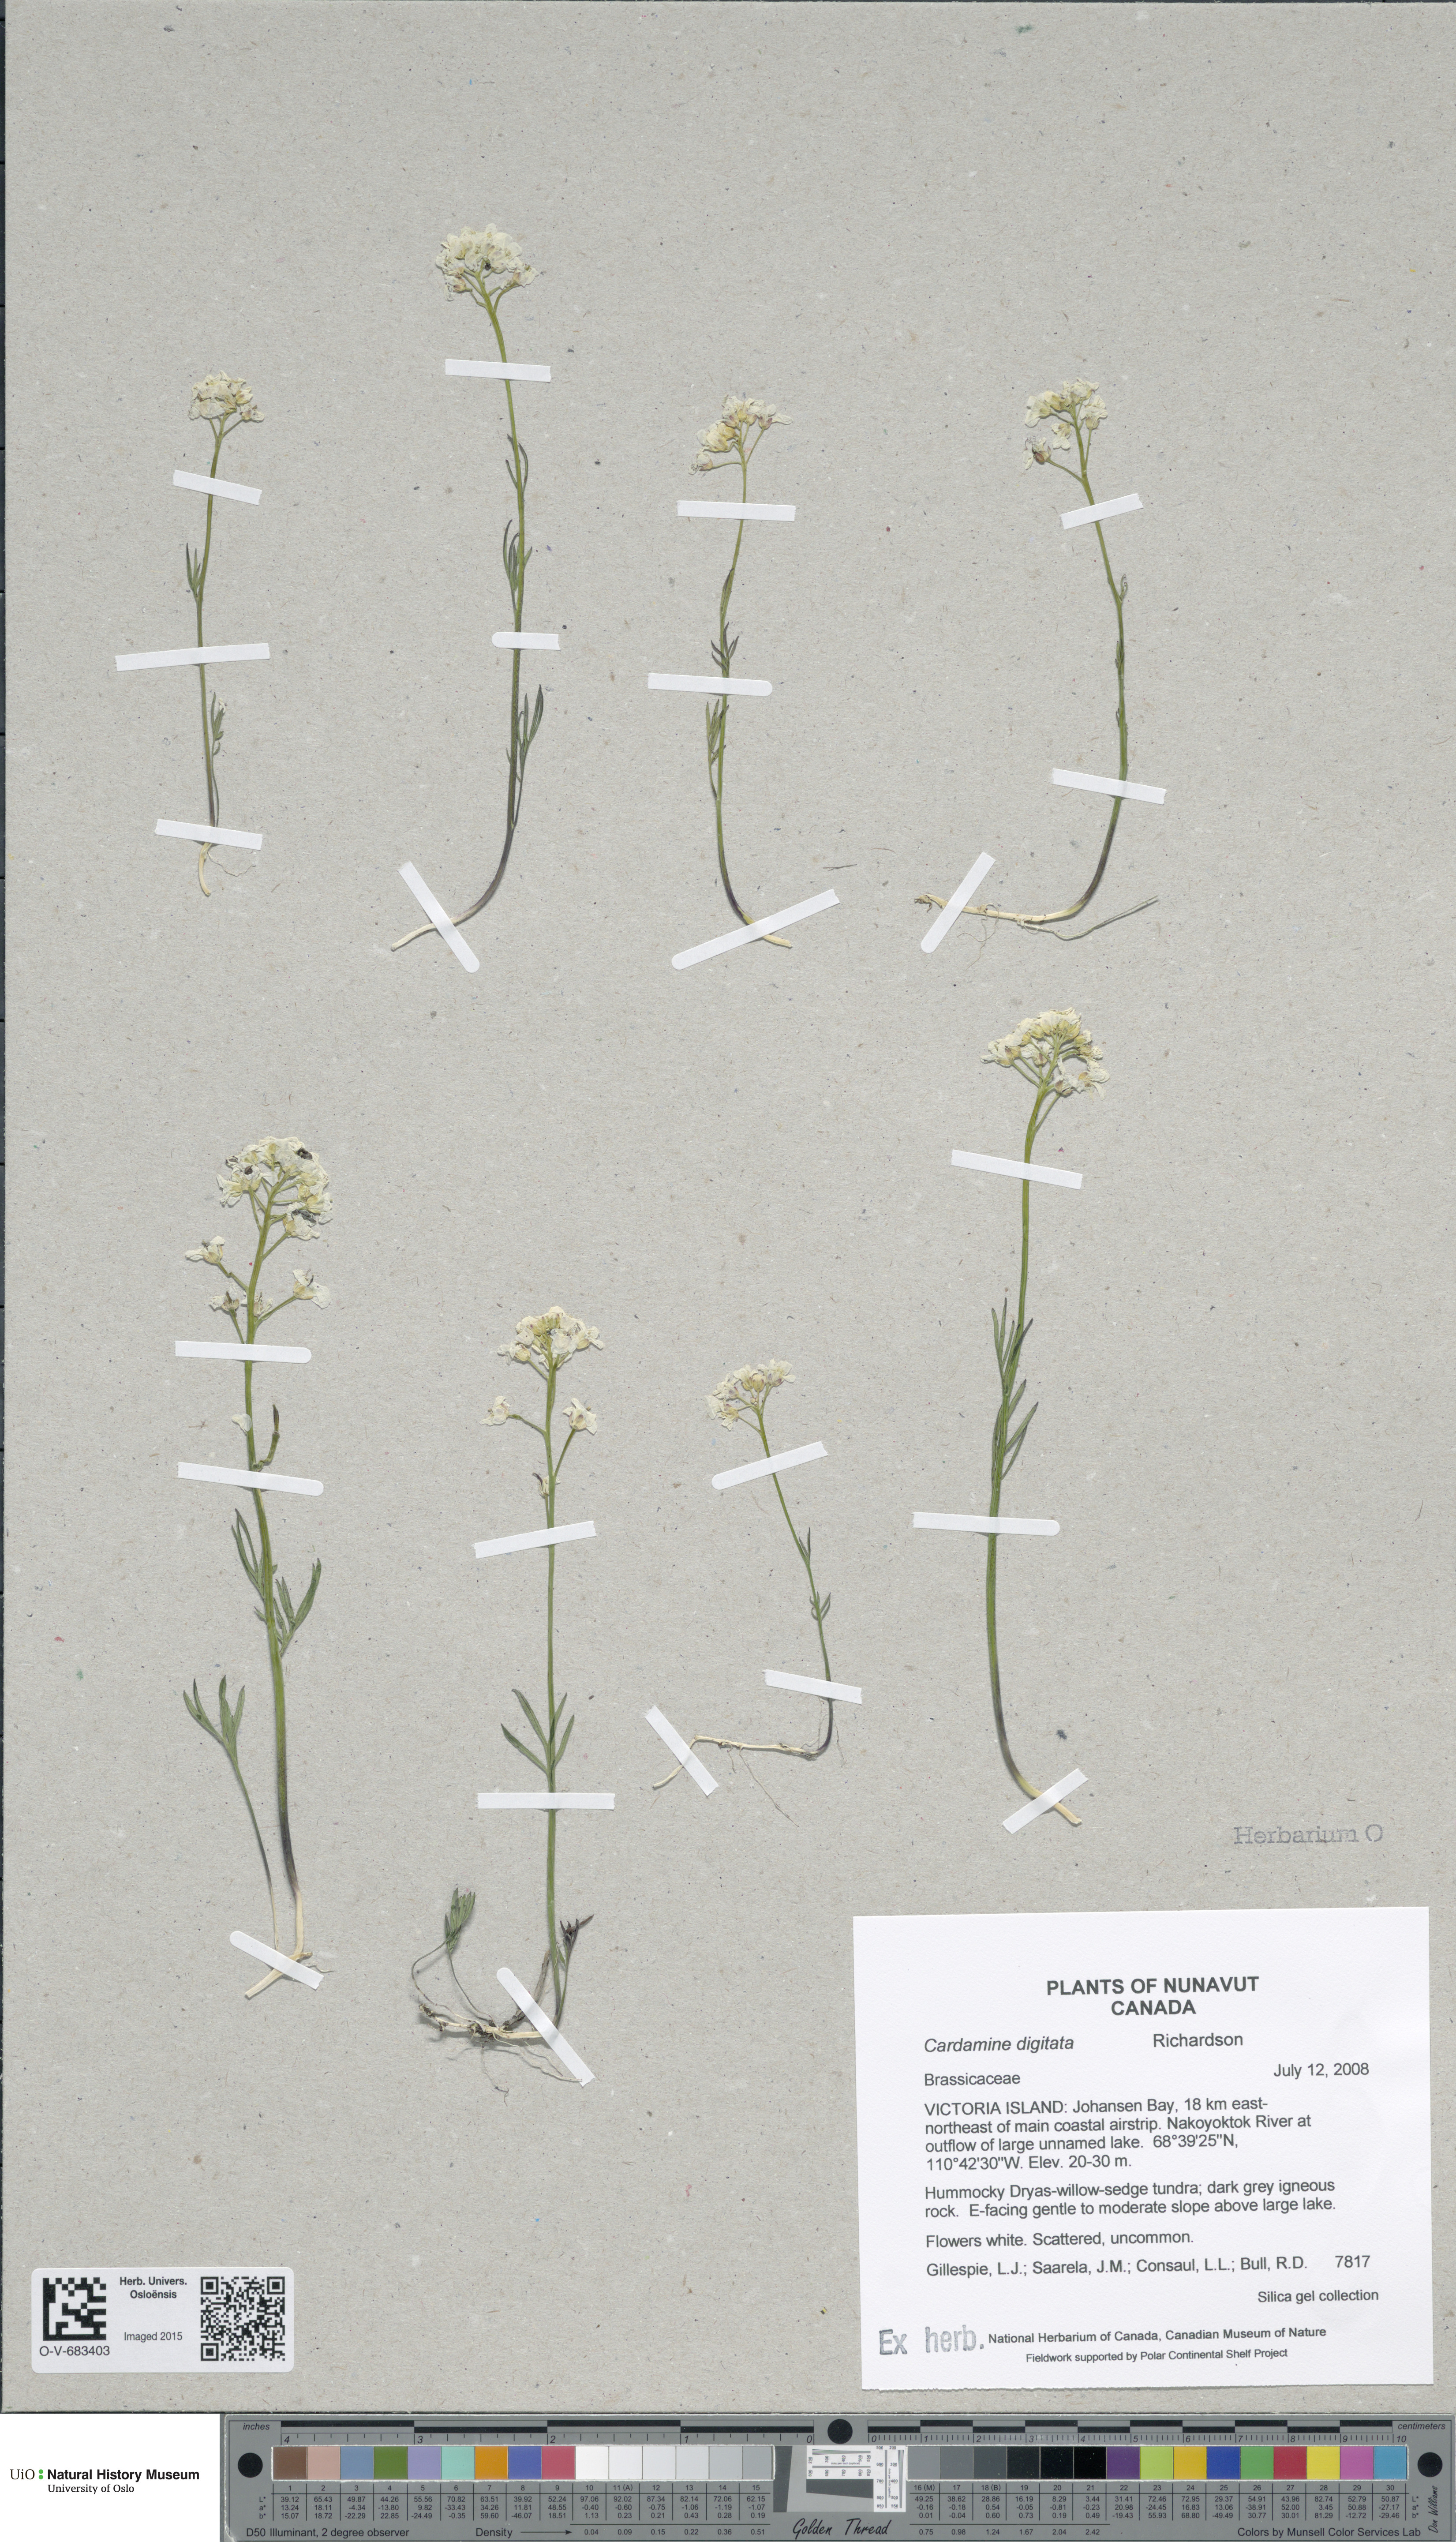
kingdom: Plantae
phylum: Tracheophyta
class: Magnoliopsida
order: Brassicales
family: Brassicaceae
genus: Cardamine
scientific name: Cardamine digitata
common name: Richardson's bittercress
